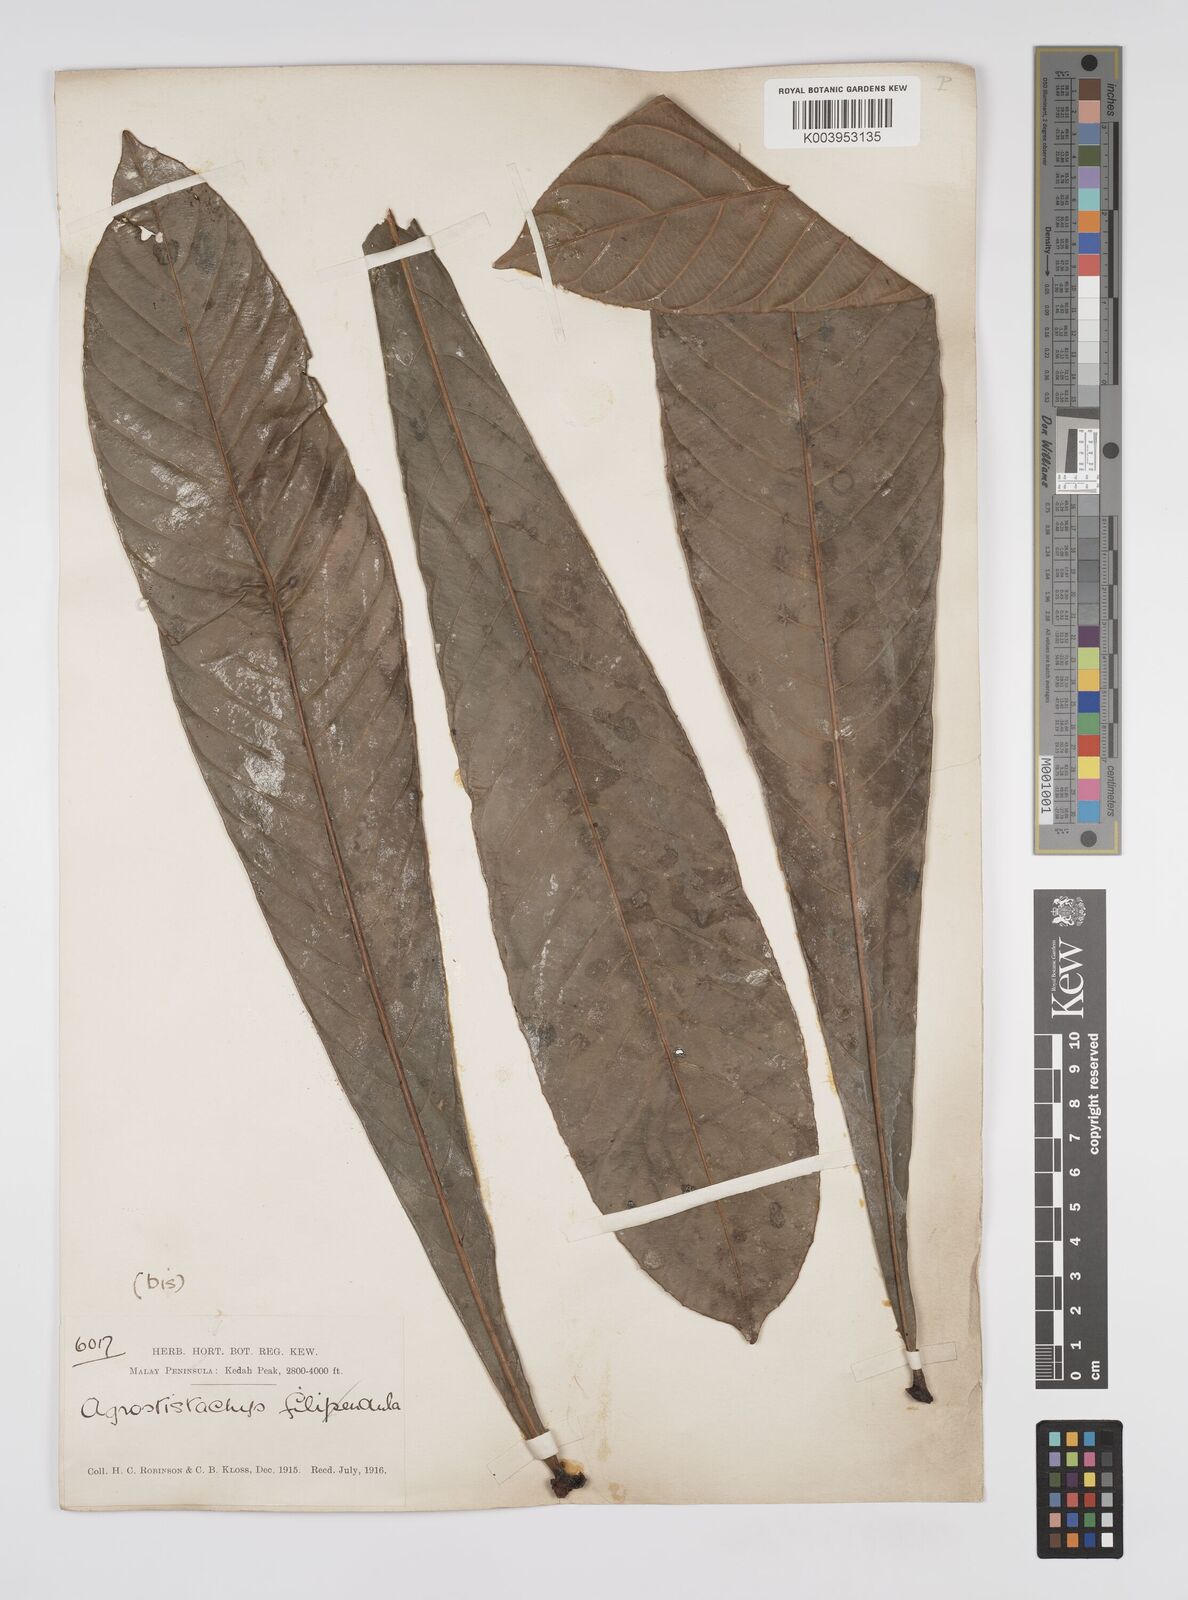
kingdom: Plantae
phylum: Tracheophyta
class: Magnoliopsida
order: Malpighiales
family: Euphorbiaceae
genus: Agrostistachys
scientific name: Agrostistachys borneensis
